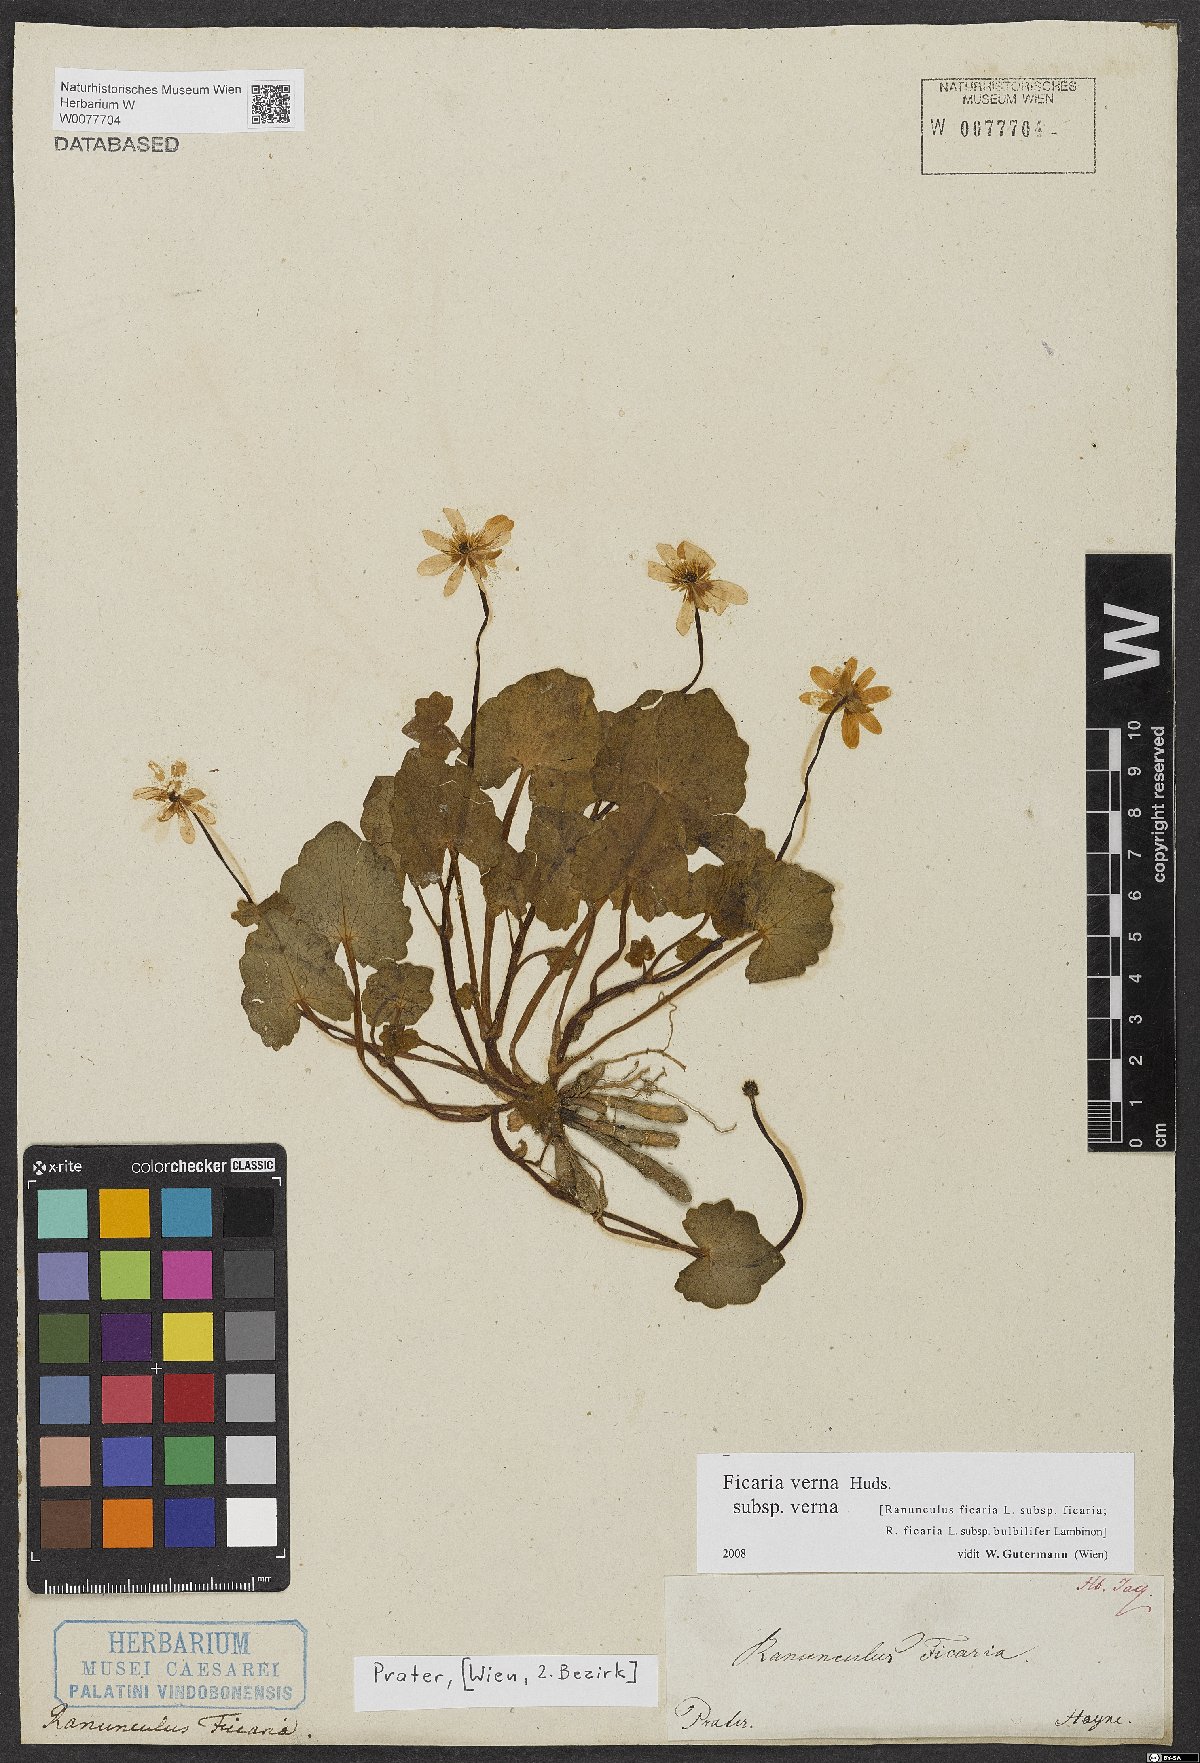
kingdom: Plantae
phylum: Tracheophyta
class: Magnoliopsida
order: Ranunculales
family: Ranunculaceae
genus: Ficaria
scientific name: Ficaria verna
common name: Lesser celandine
